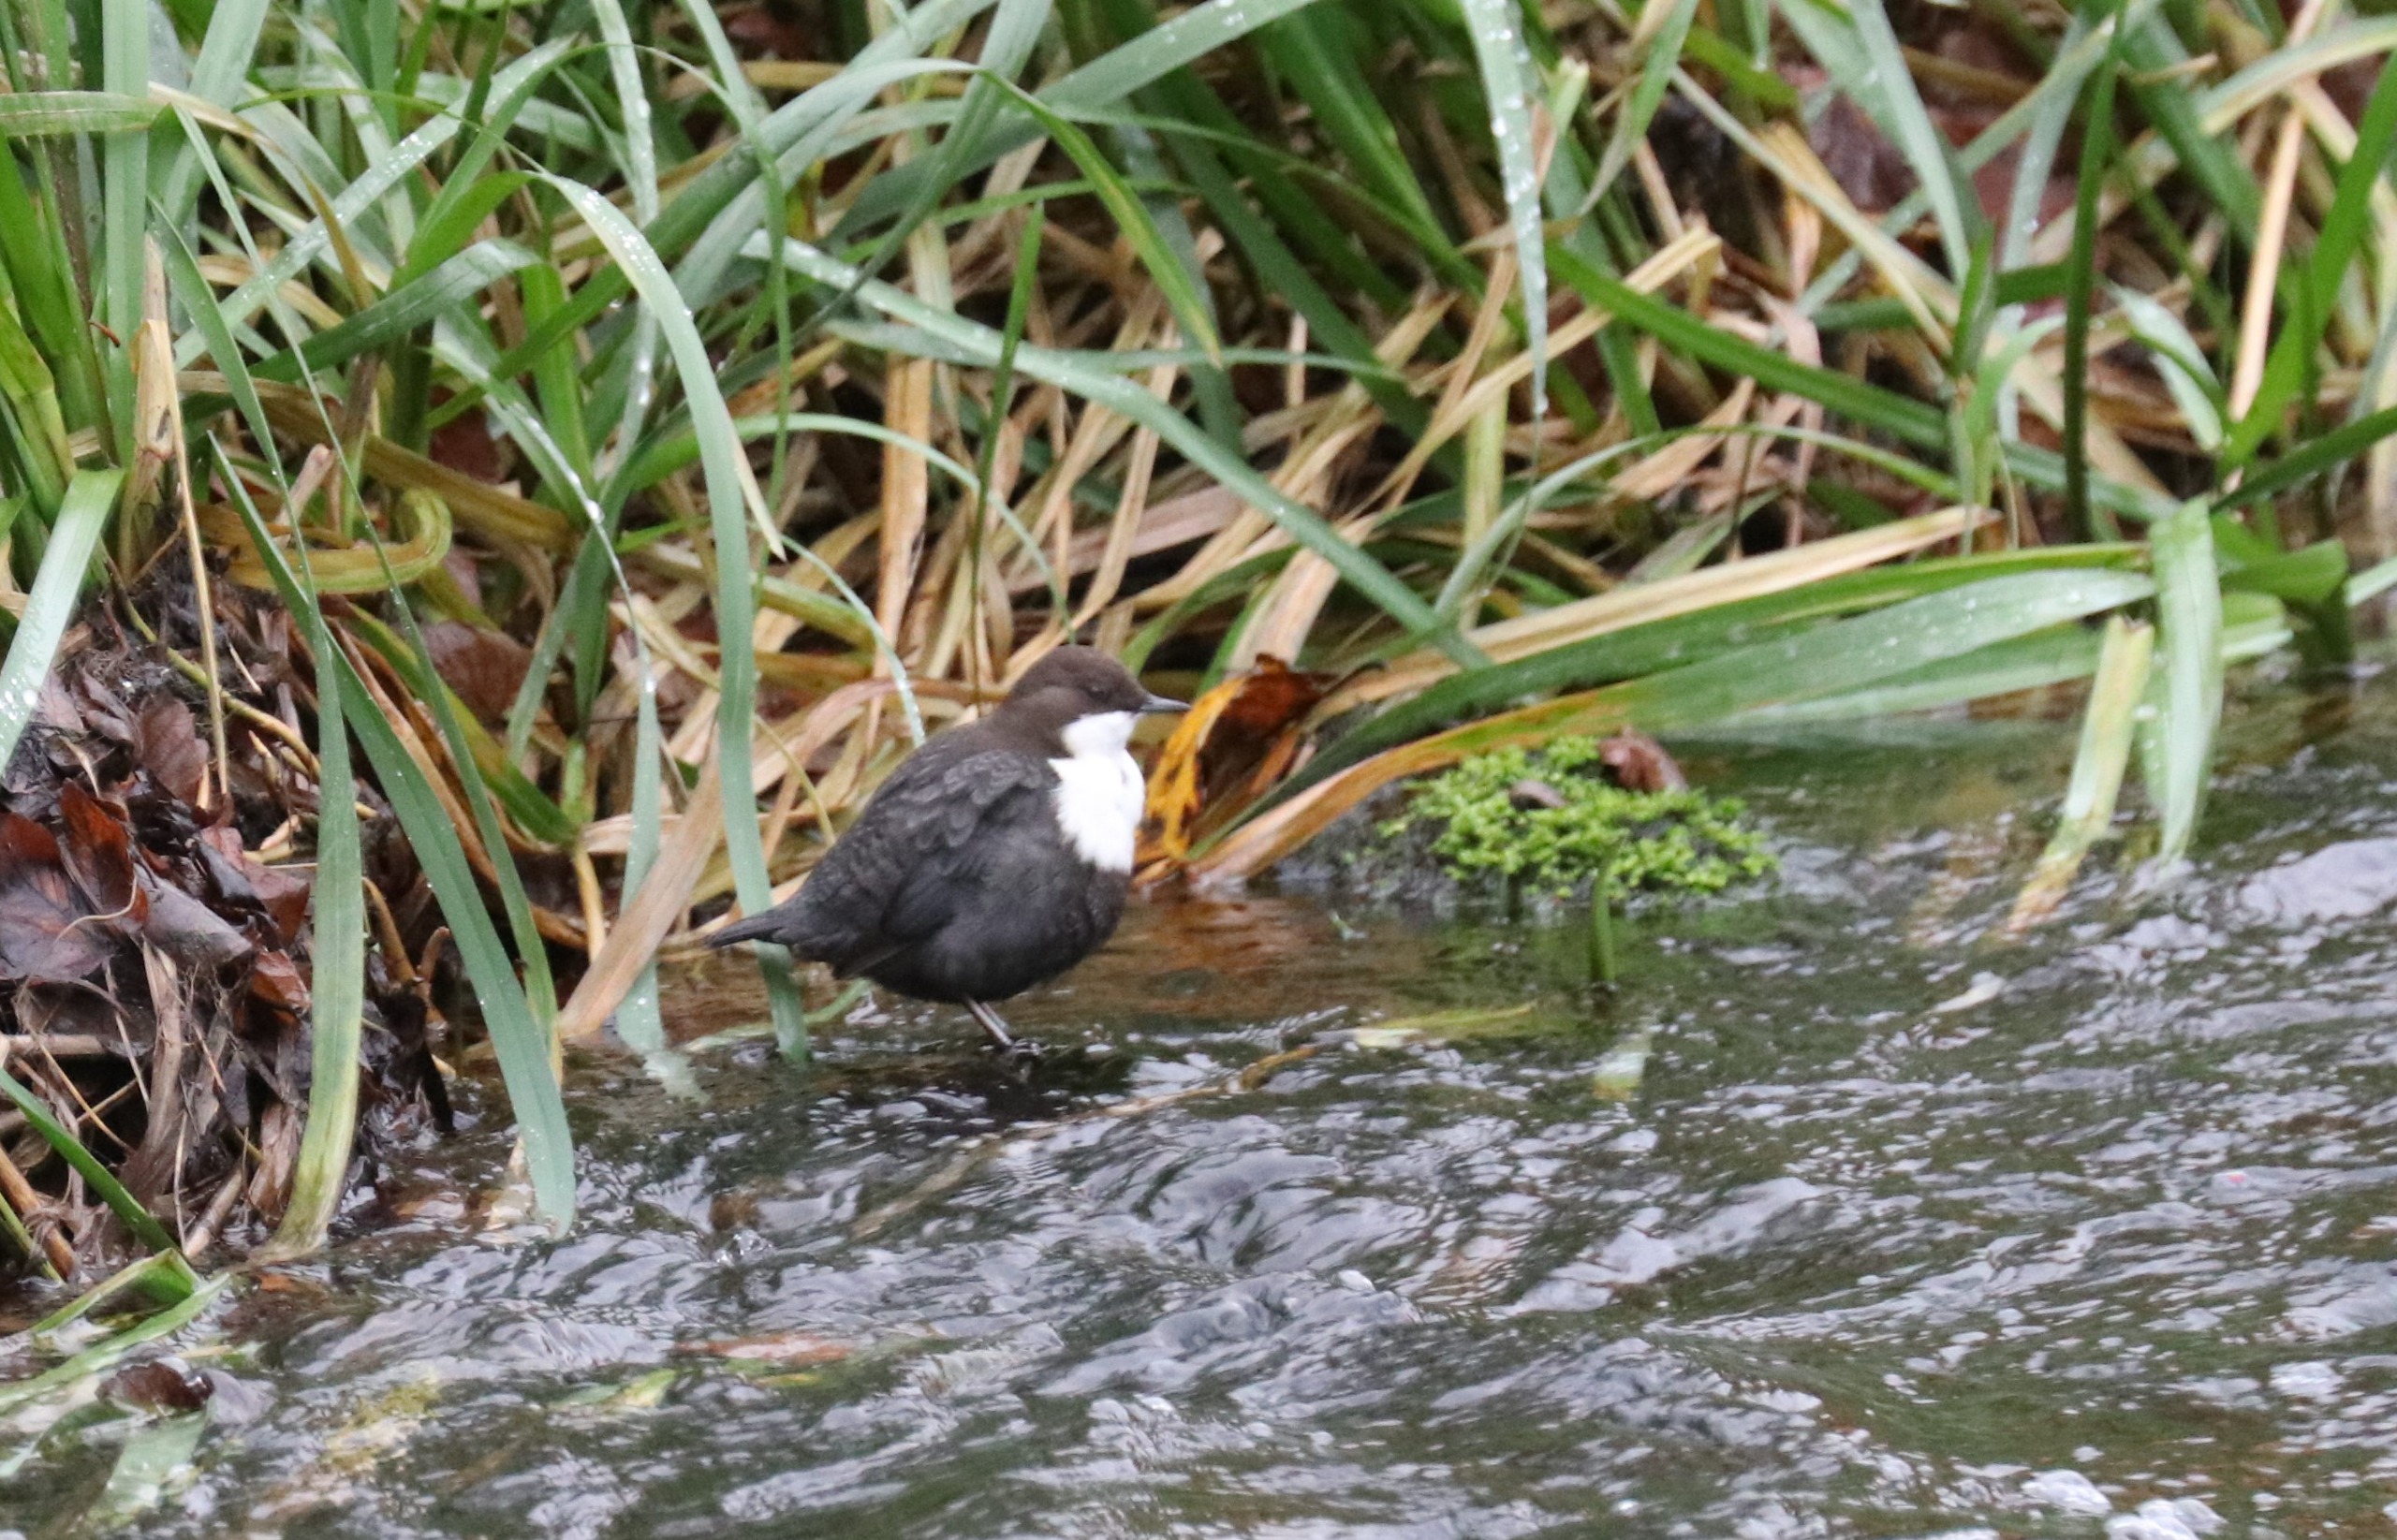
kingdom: Animalia
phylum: Chordata
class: Aves
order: Passeriformes
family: Cinclidae
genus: Cinclus
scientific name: Cinclus cinclus
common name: Vandstær
